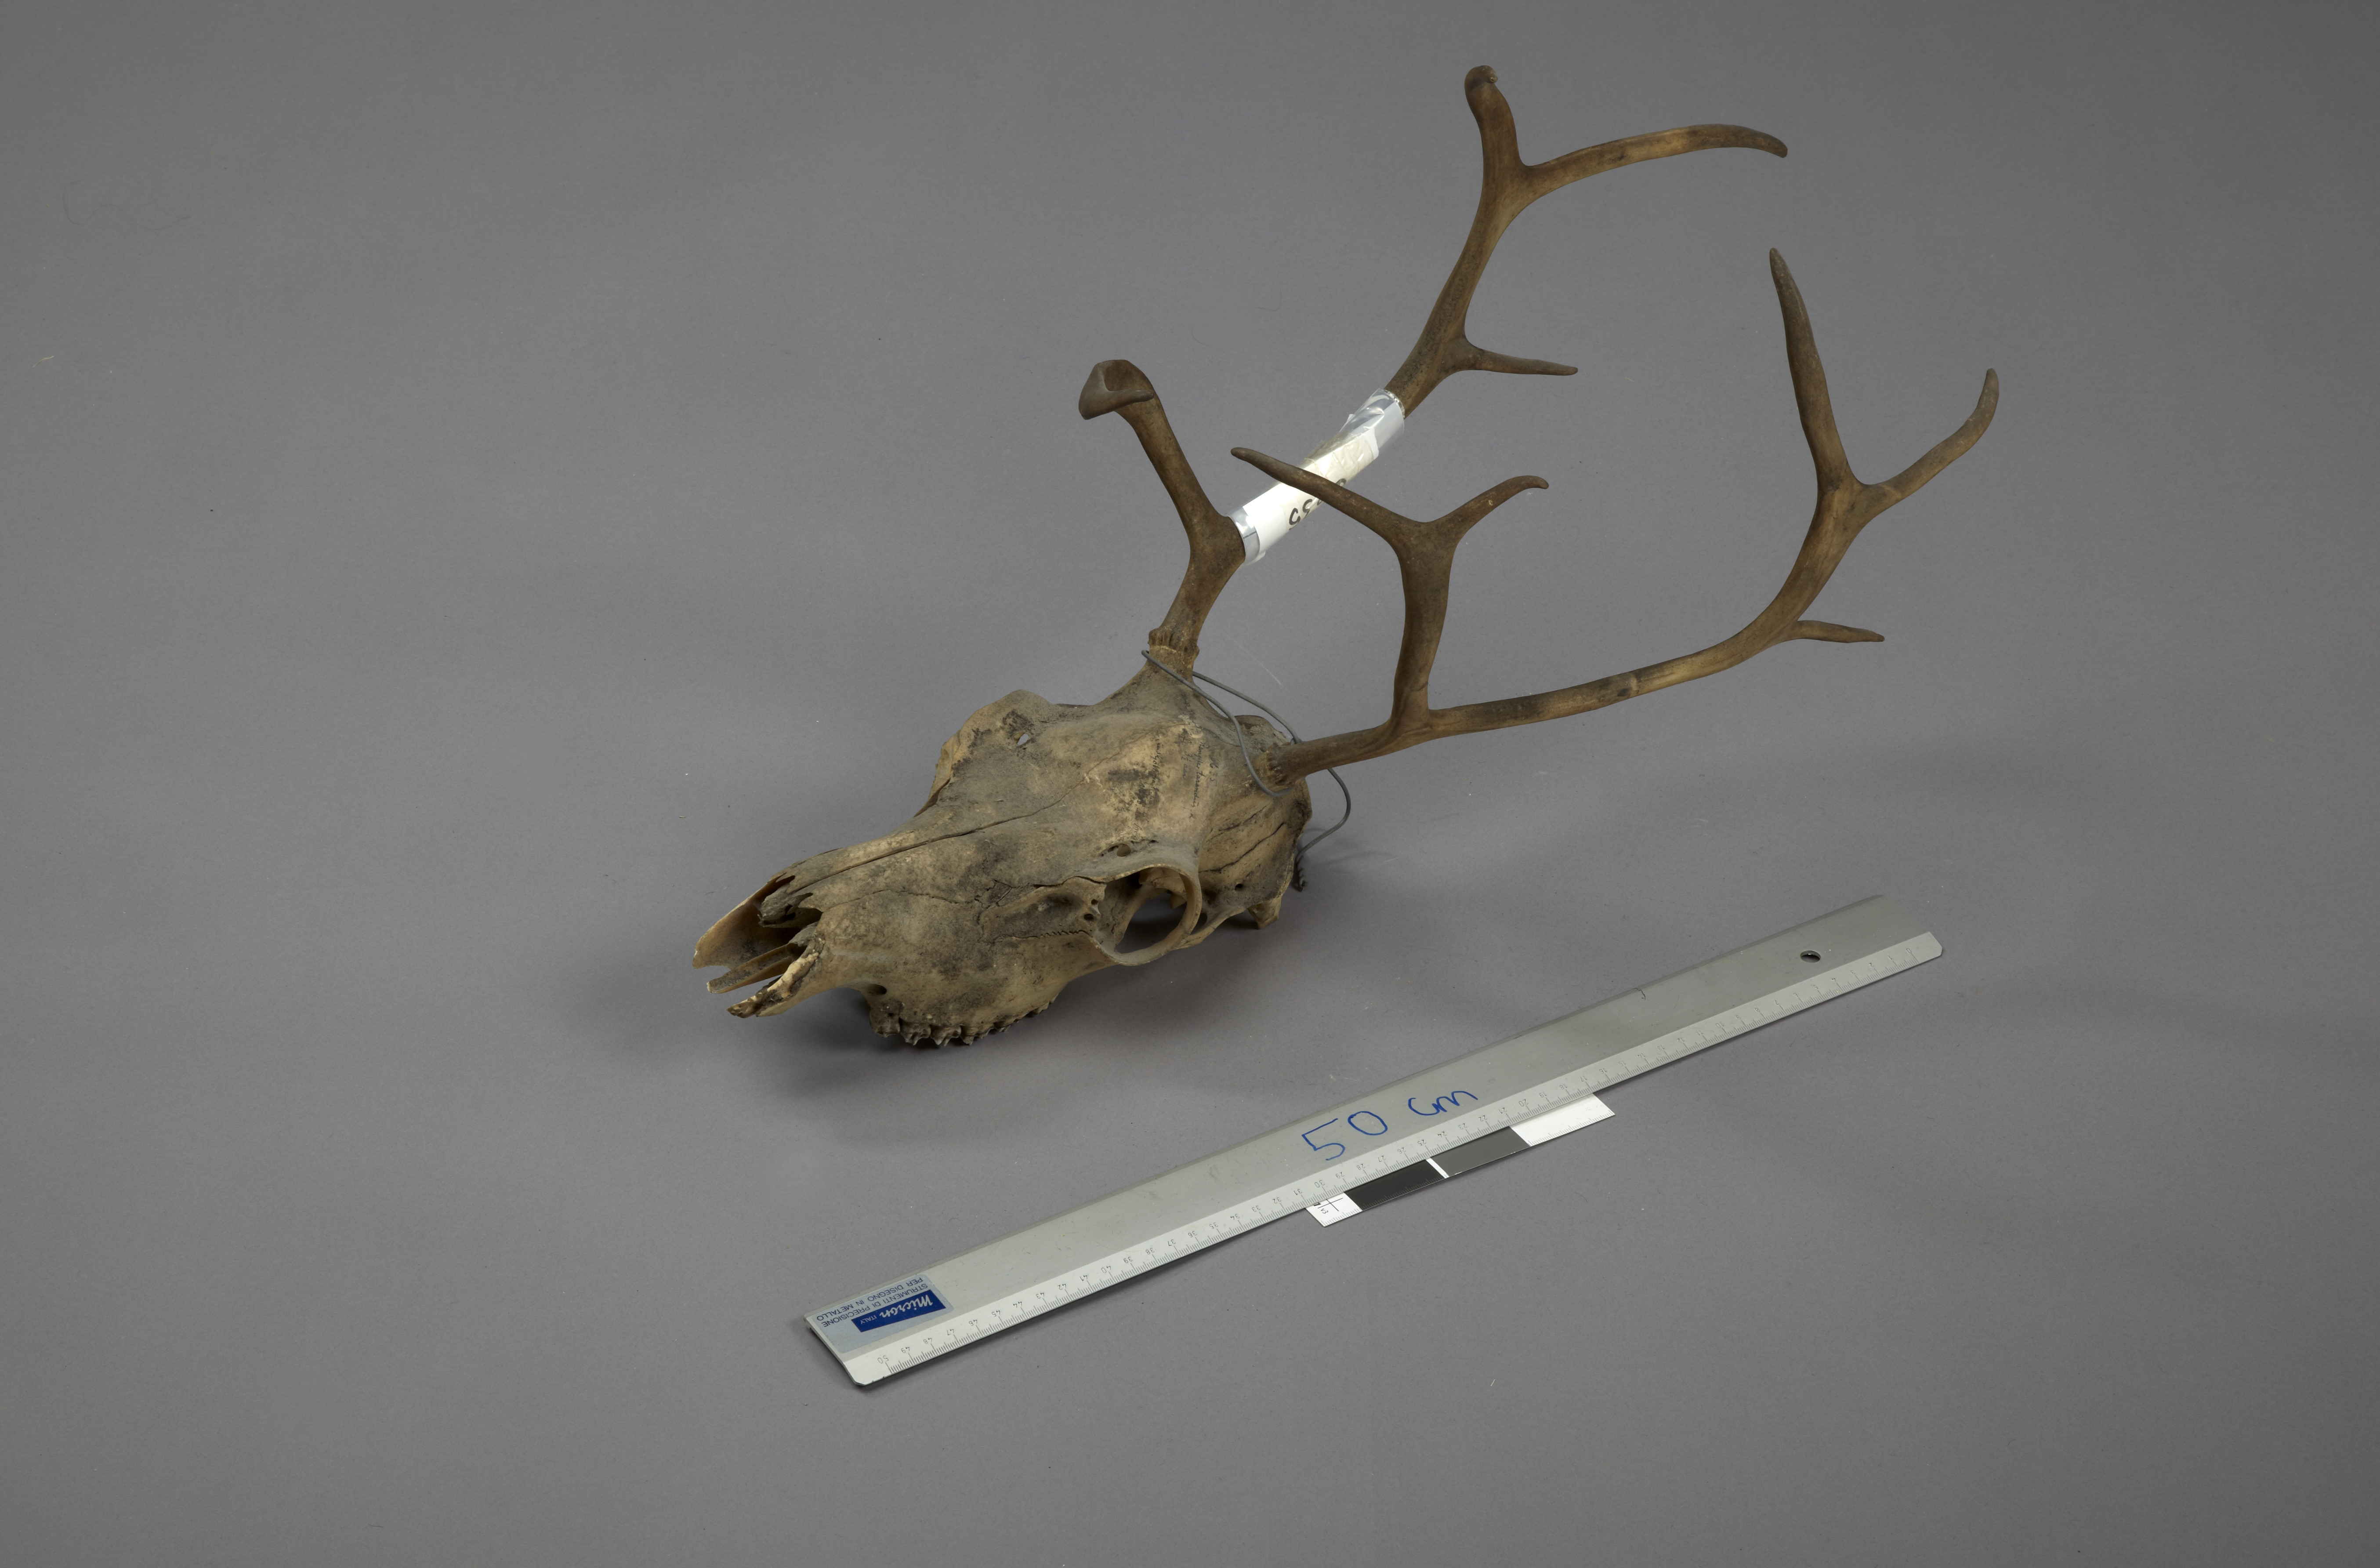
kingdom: Animalia
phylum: Chordata
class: Mammalia
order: Artiodactyla
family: Cervidae
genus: Rangifer
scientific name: Rangifer tarandus
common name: Reindeer
